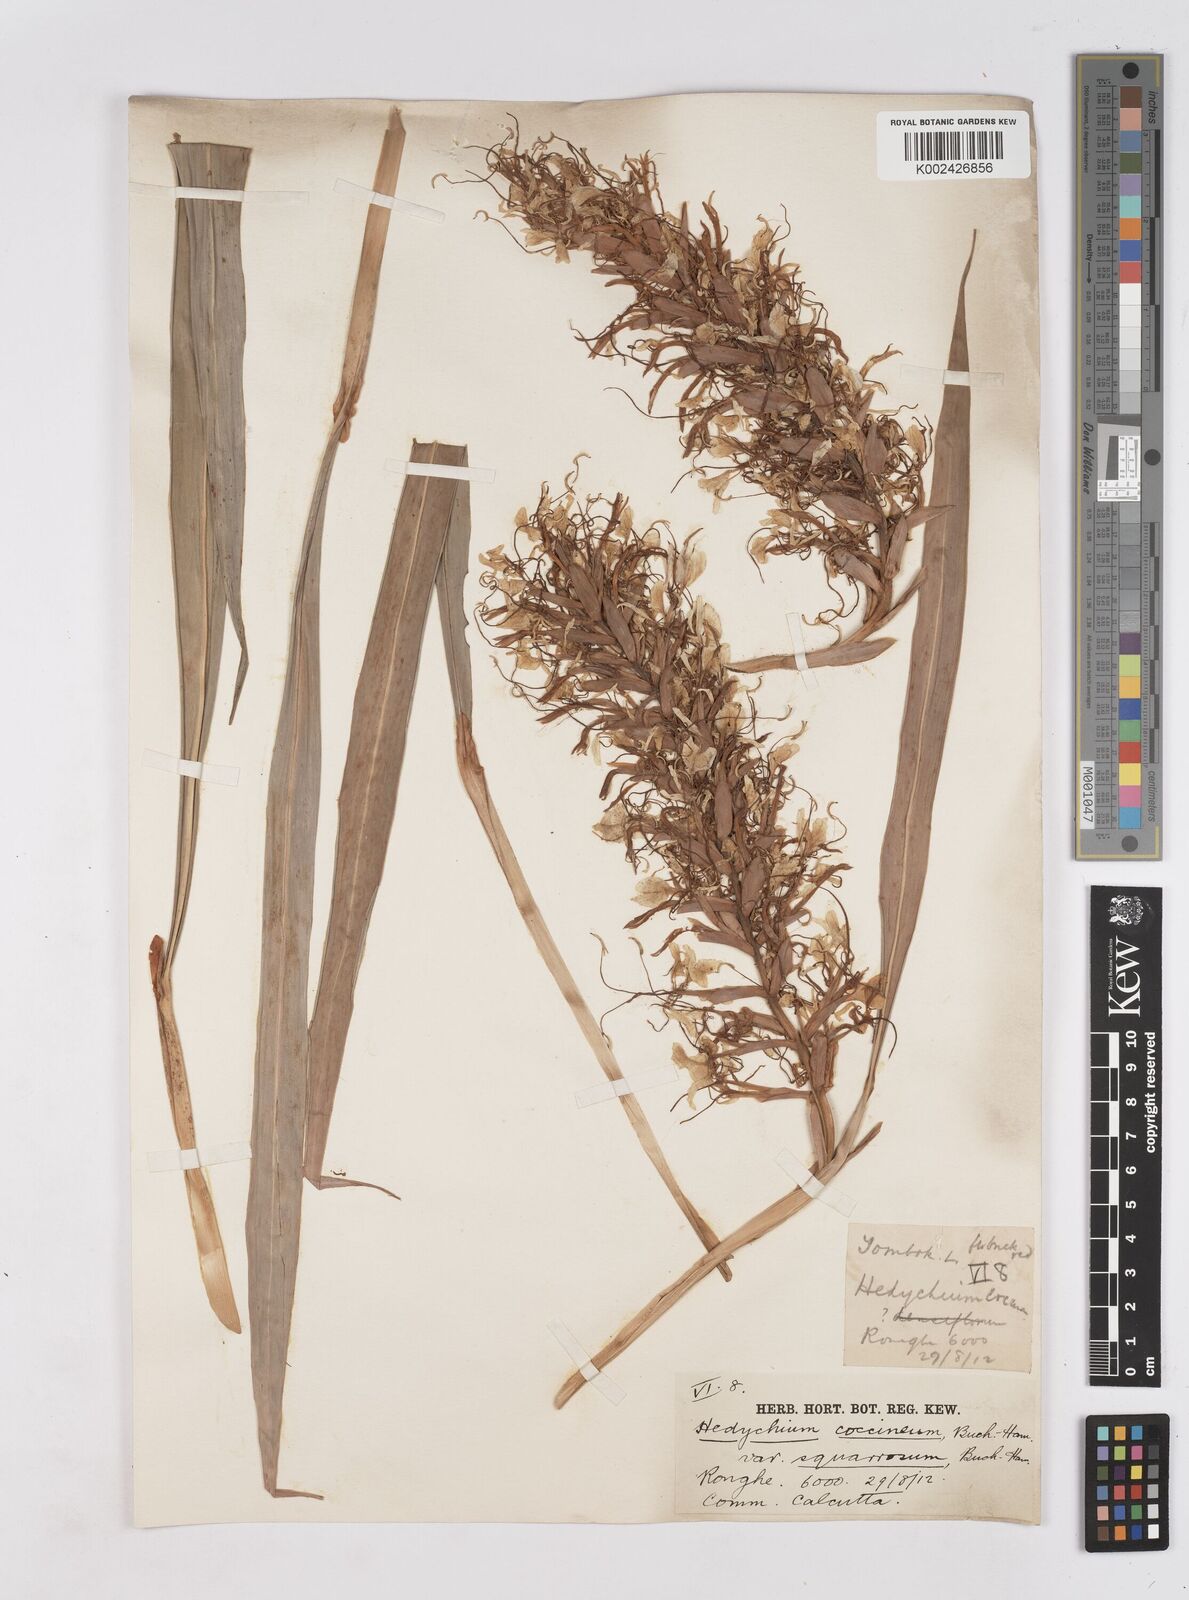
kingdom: Plantae
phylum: Tracheophyta
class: Liliopsida
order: Zingiberales
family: Zingiberaceae
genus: Hedychium
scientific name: Hedychium coccineum
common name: Red ginger-lily
